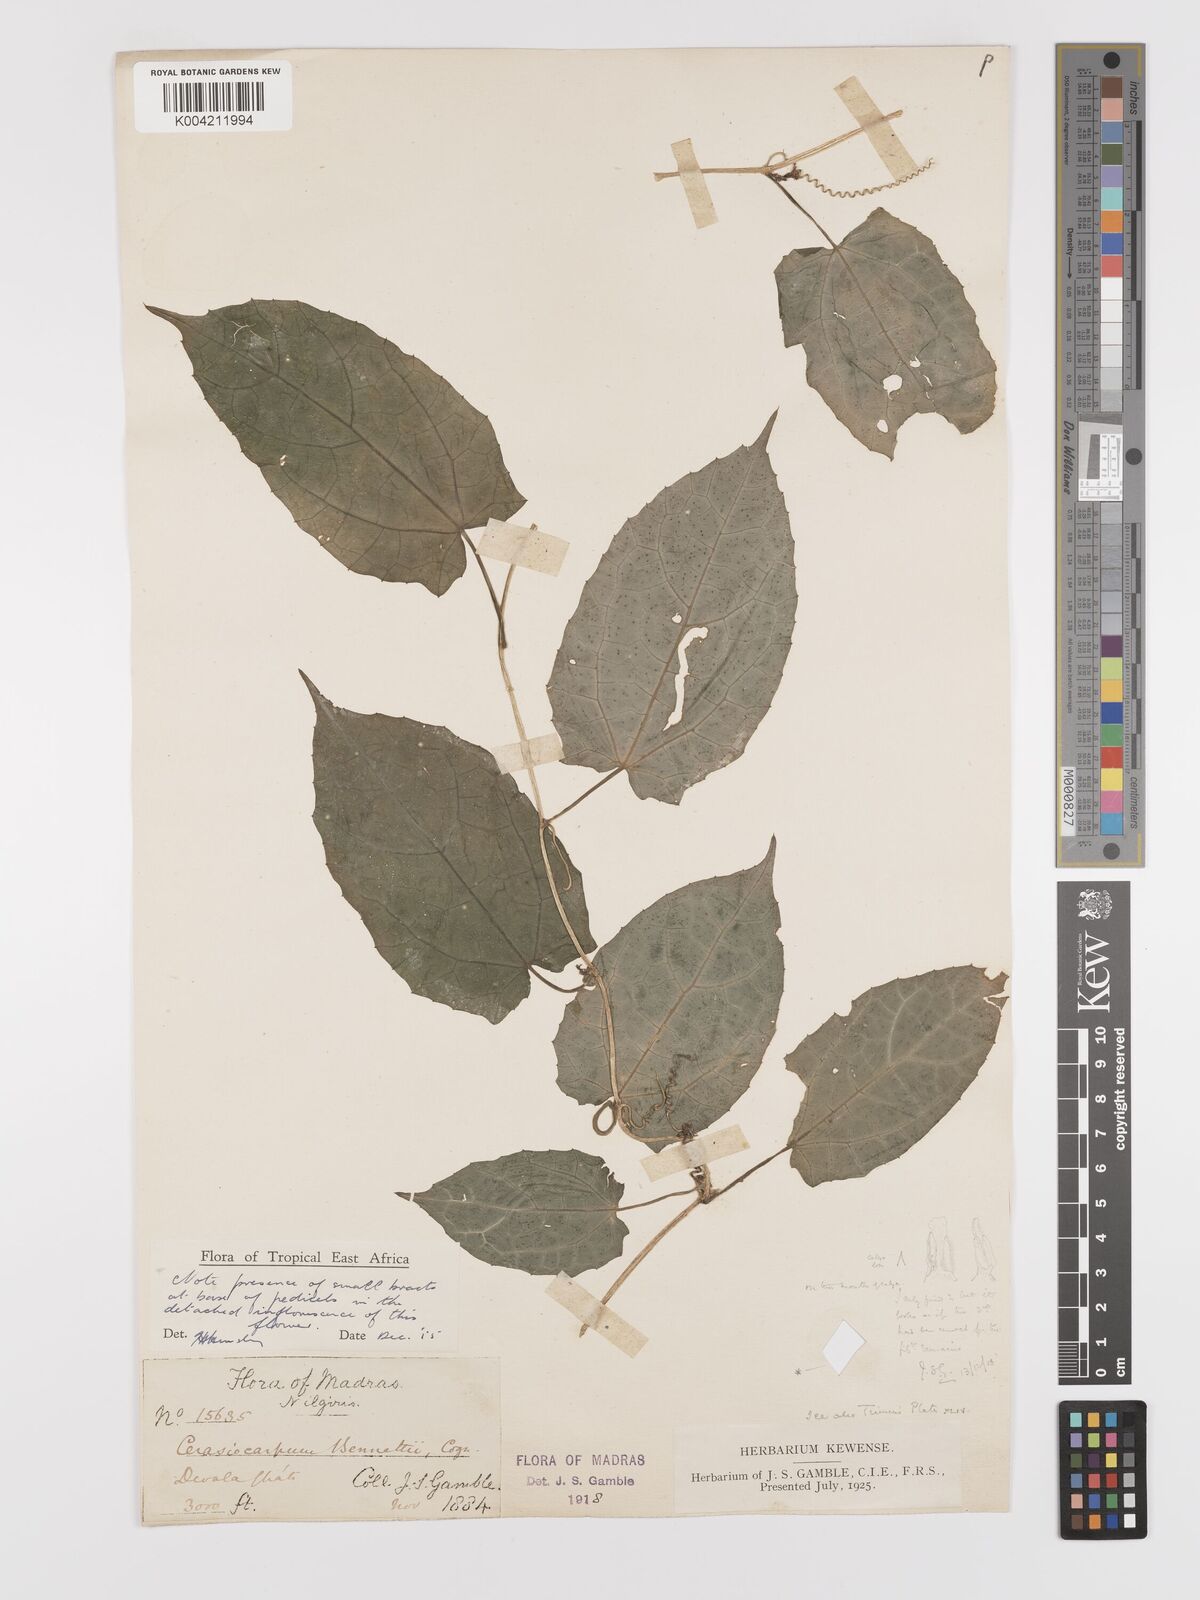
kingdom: Plantae
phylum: Tracheophyta
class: Magnoliopsida
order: Cucurbitales
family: Cucurbitaceae
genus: Kedrostis
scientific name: Kedrostis courtallensis
